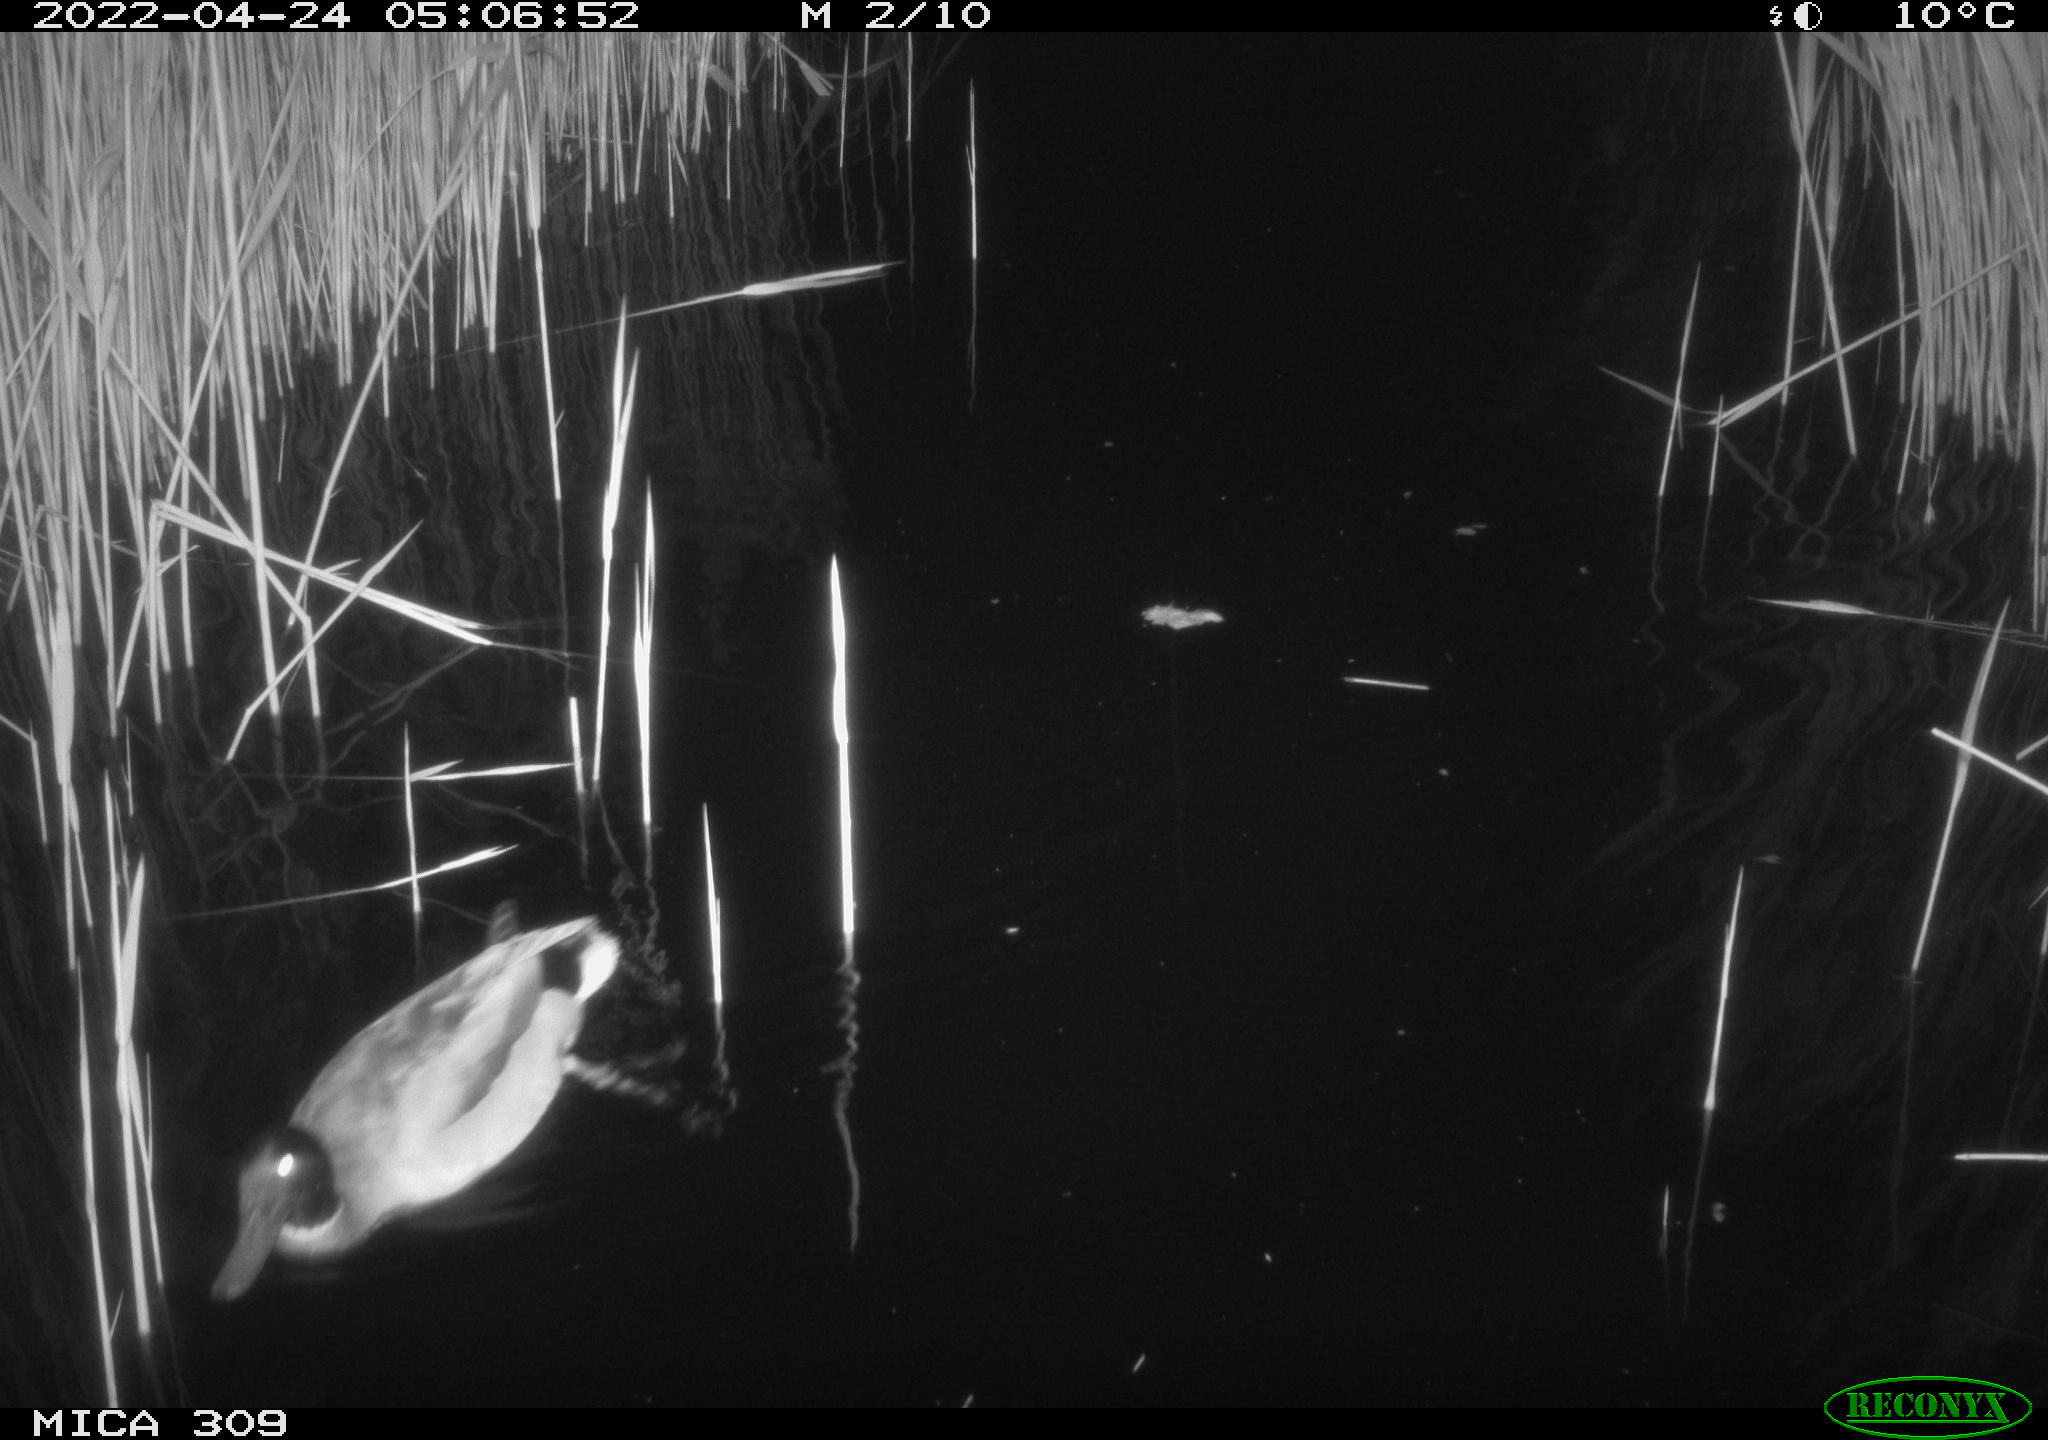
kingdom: Animalia
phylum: Chordata
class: Aves
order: Anseriformes
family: Anatidae
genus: Anas
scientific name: Anas platyrhynchos
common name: Mallard
